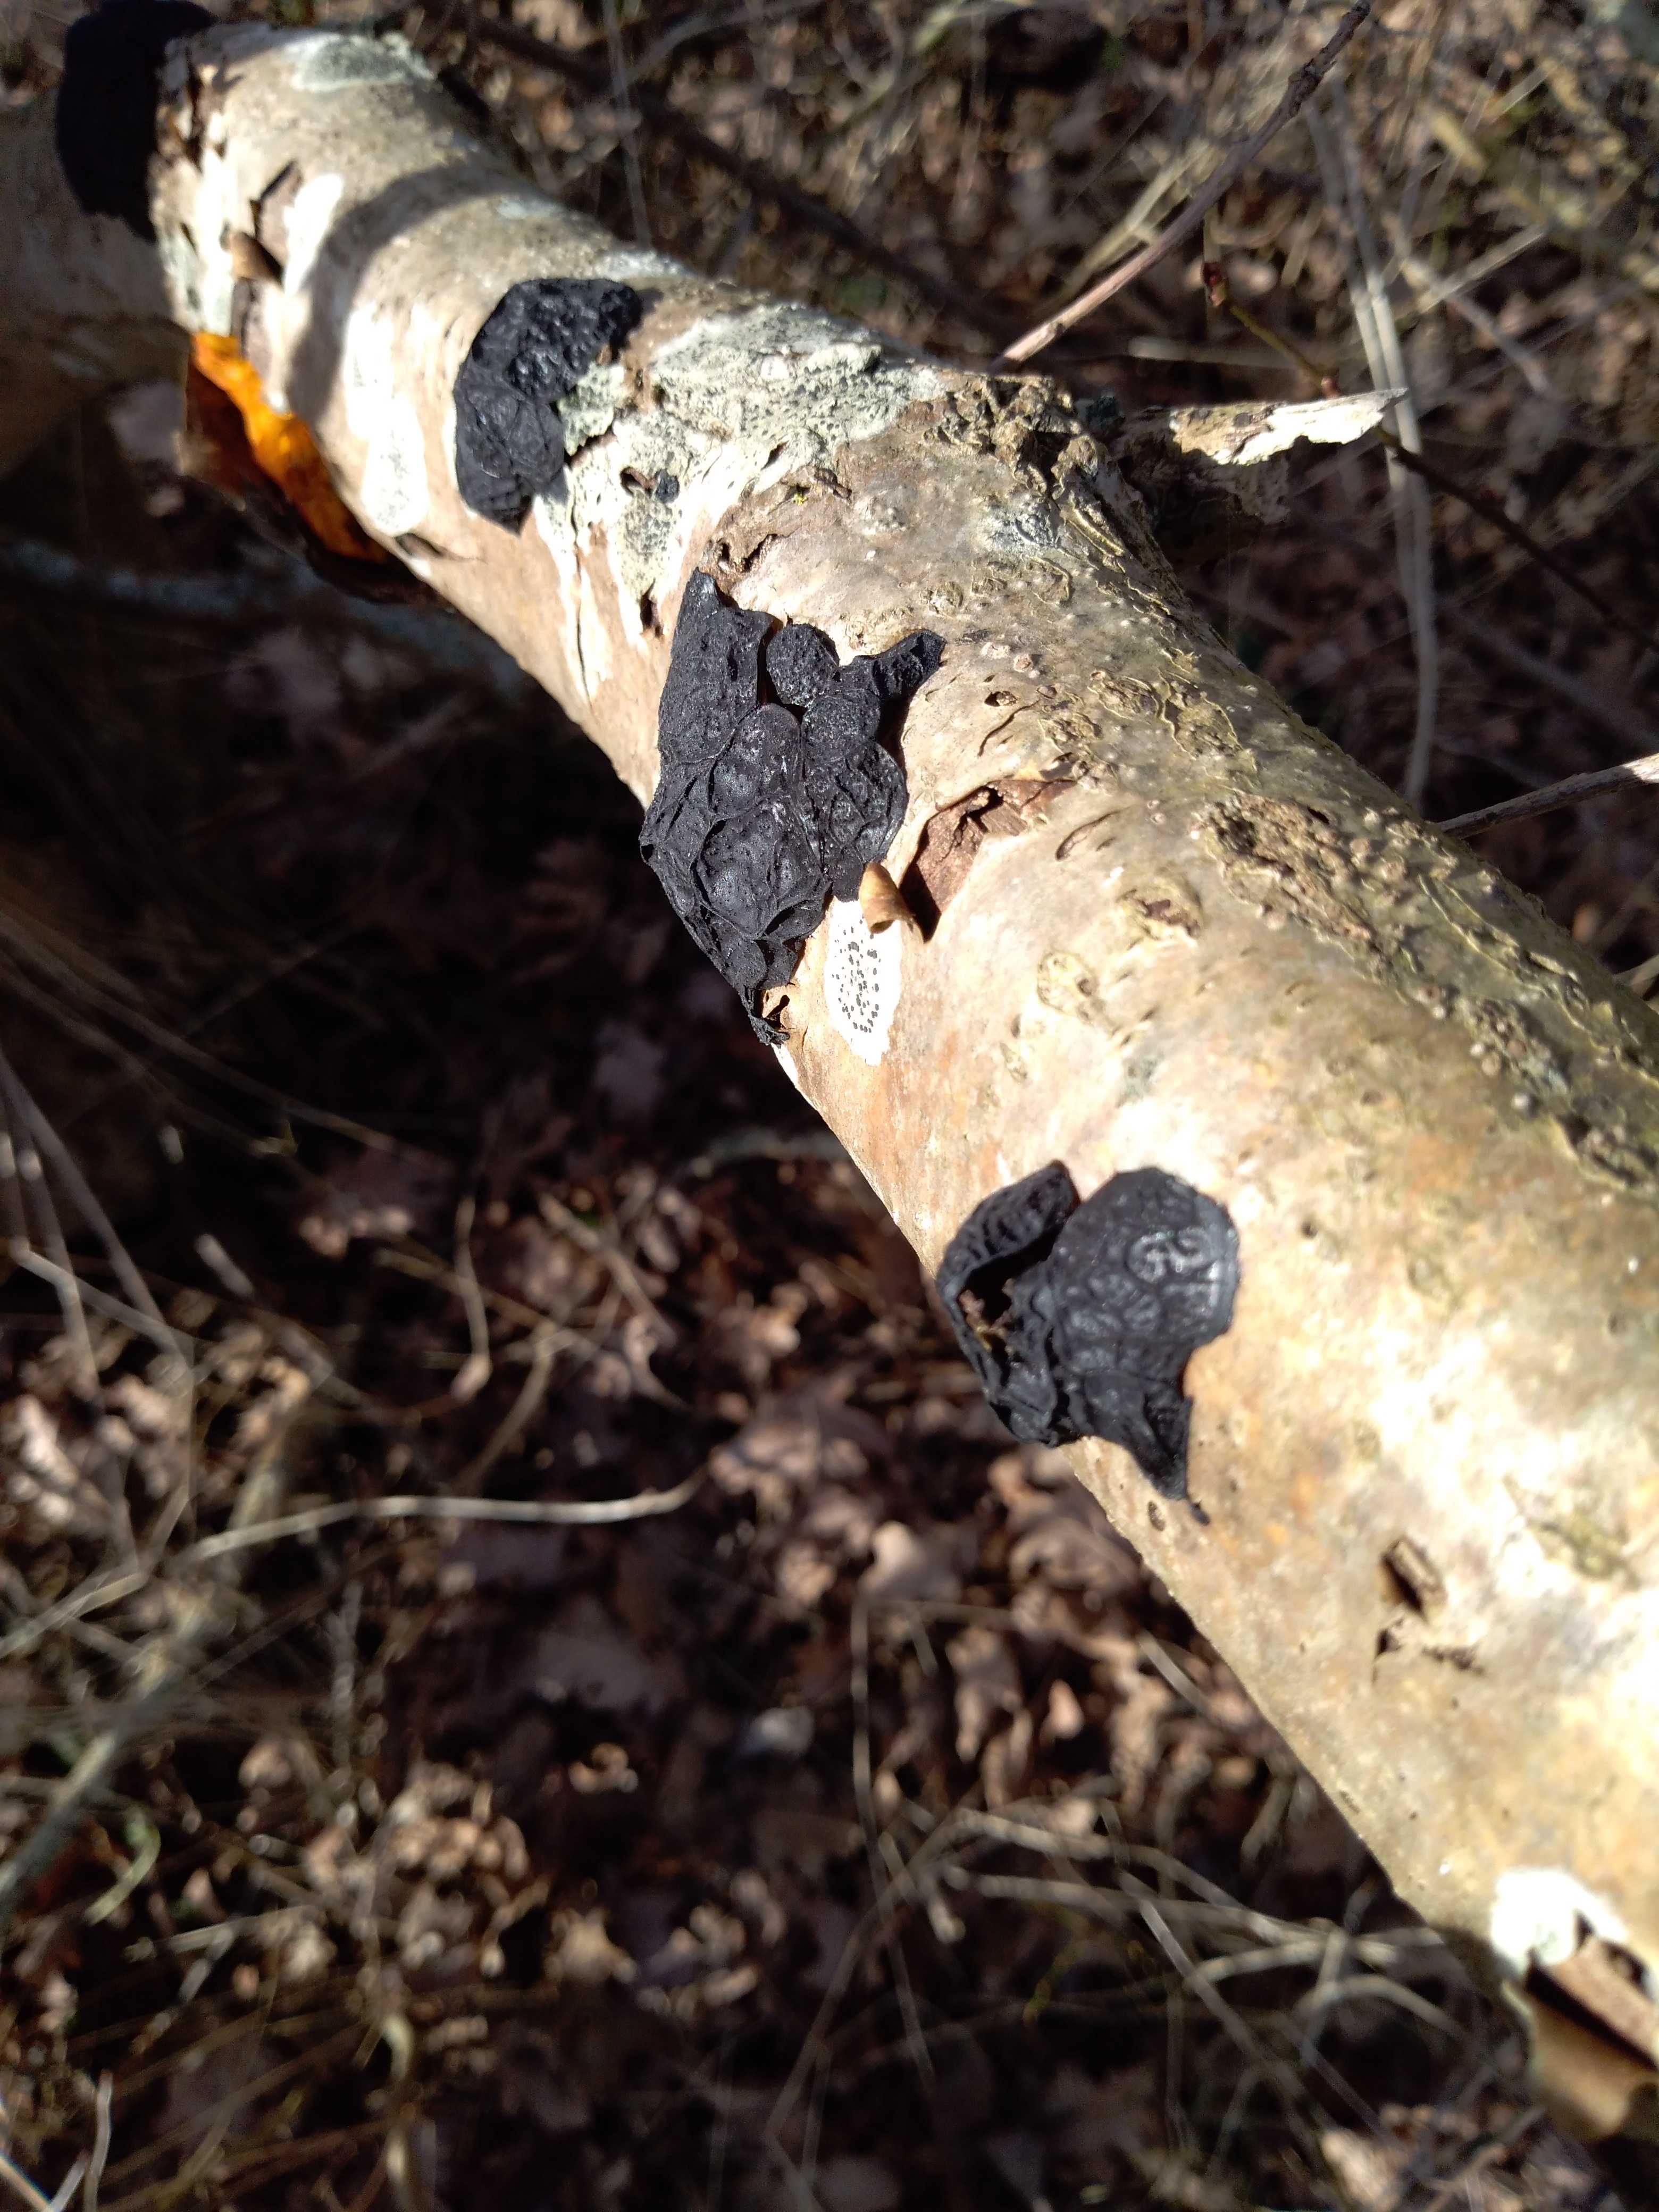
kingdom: Fungi
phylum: Basidiomycota
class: Agaricomycetes
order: Auriculariales
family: Auriculariaceae
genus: Exidia
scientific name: Exidia glandulosa
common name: ege-bævretop
